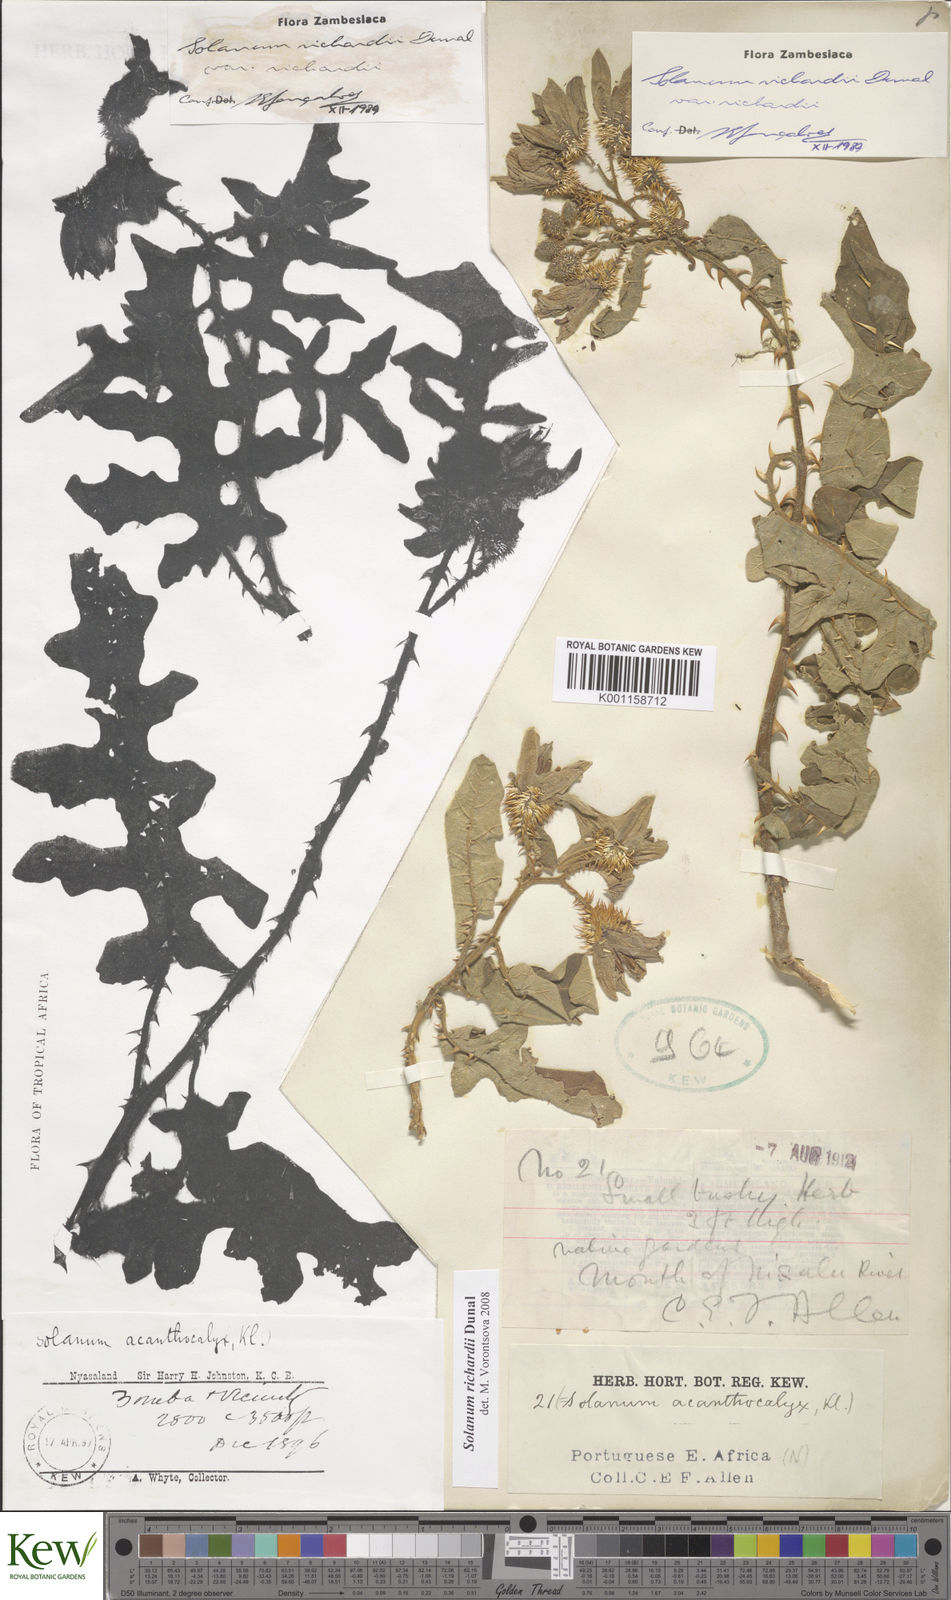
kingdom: Plantae
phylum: Tracheophyta
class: Magnoliopsida
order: Solanales
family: Solanaceae
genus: Solanum
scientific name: Solanum richardii
